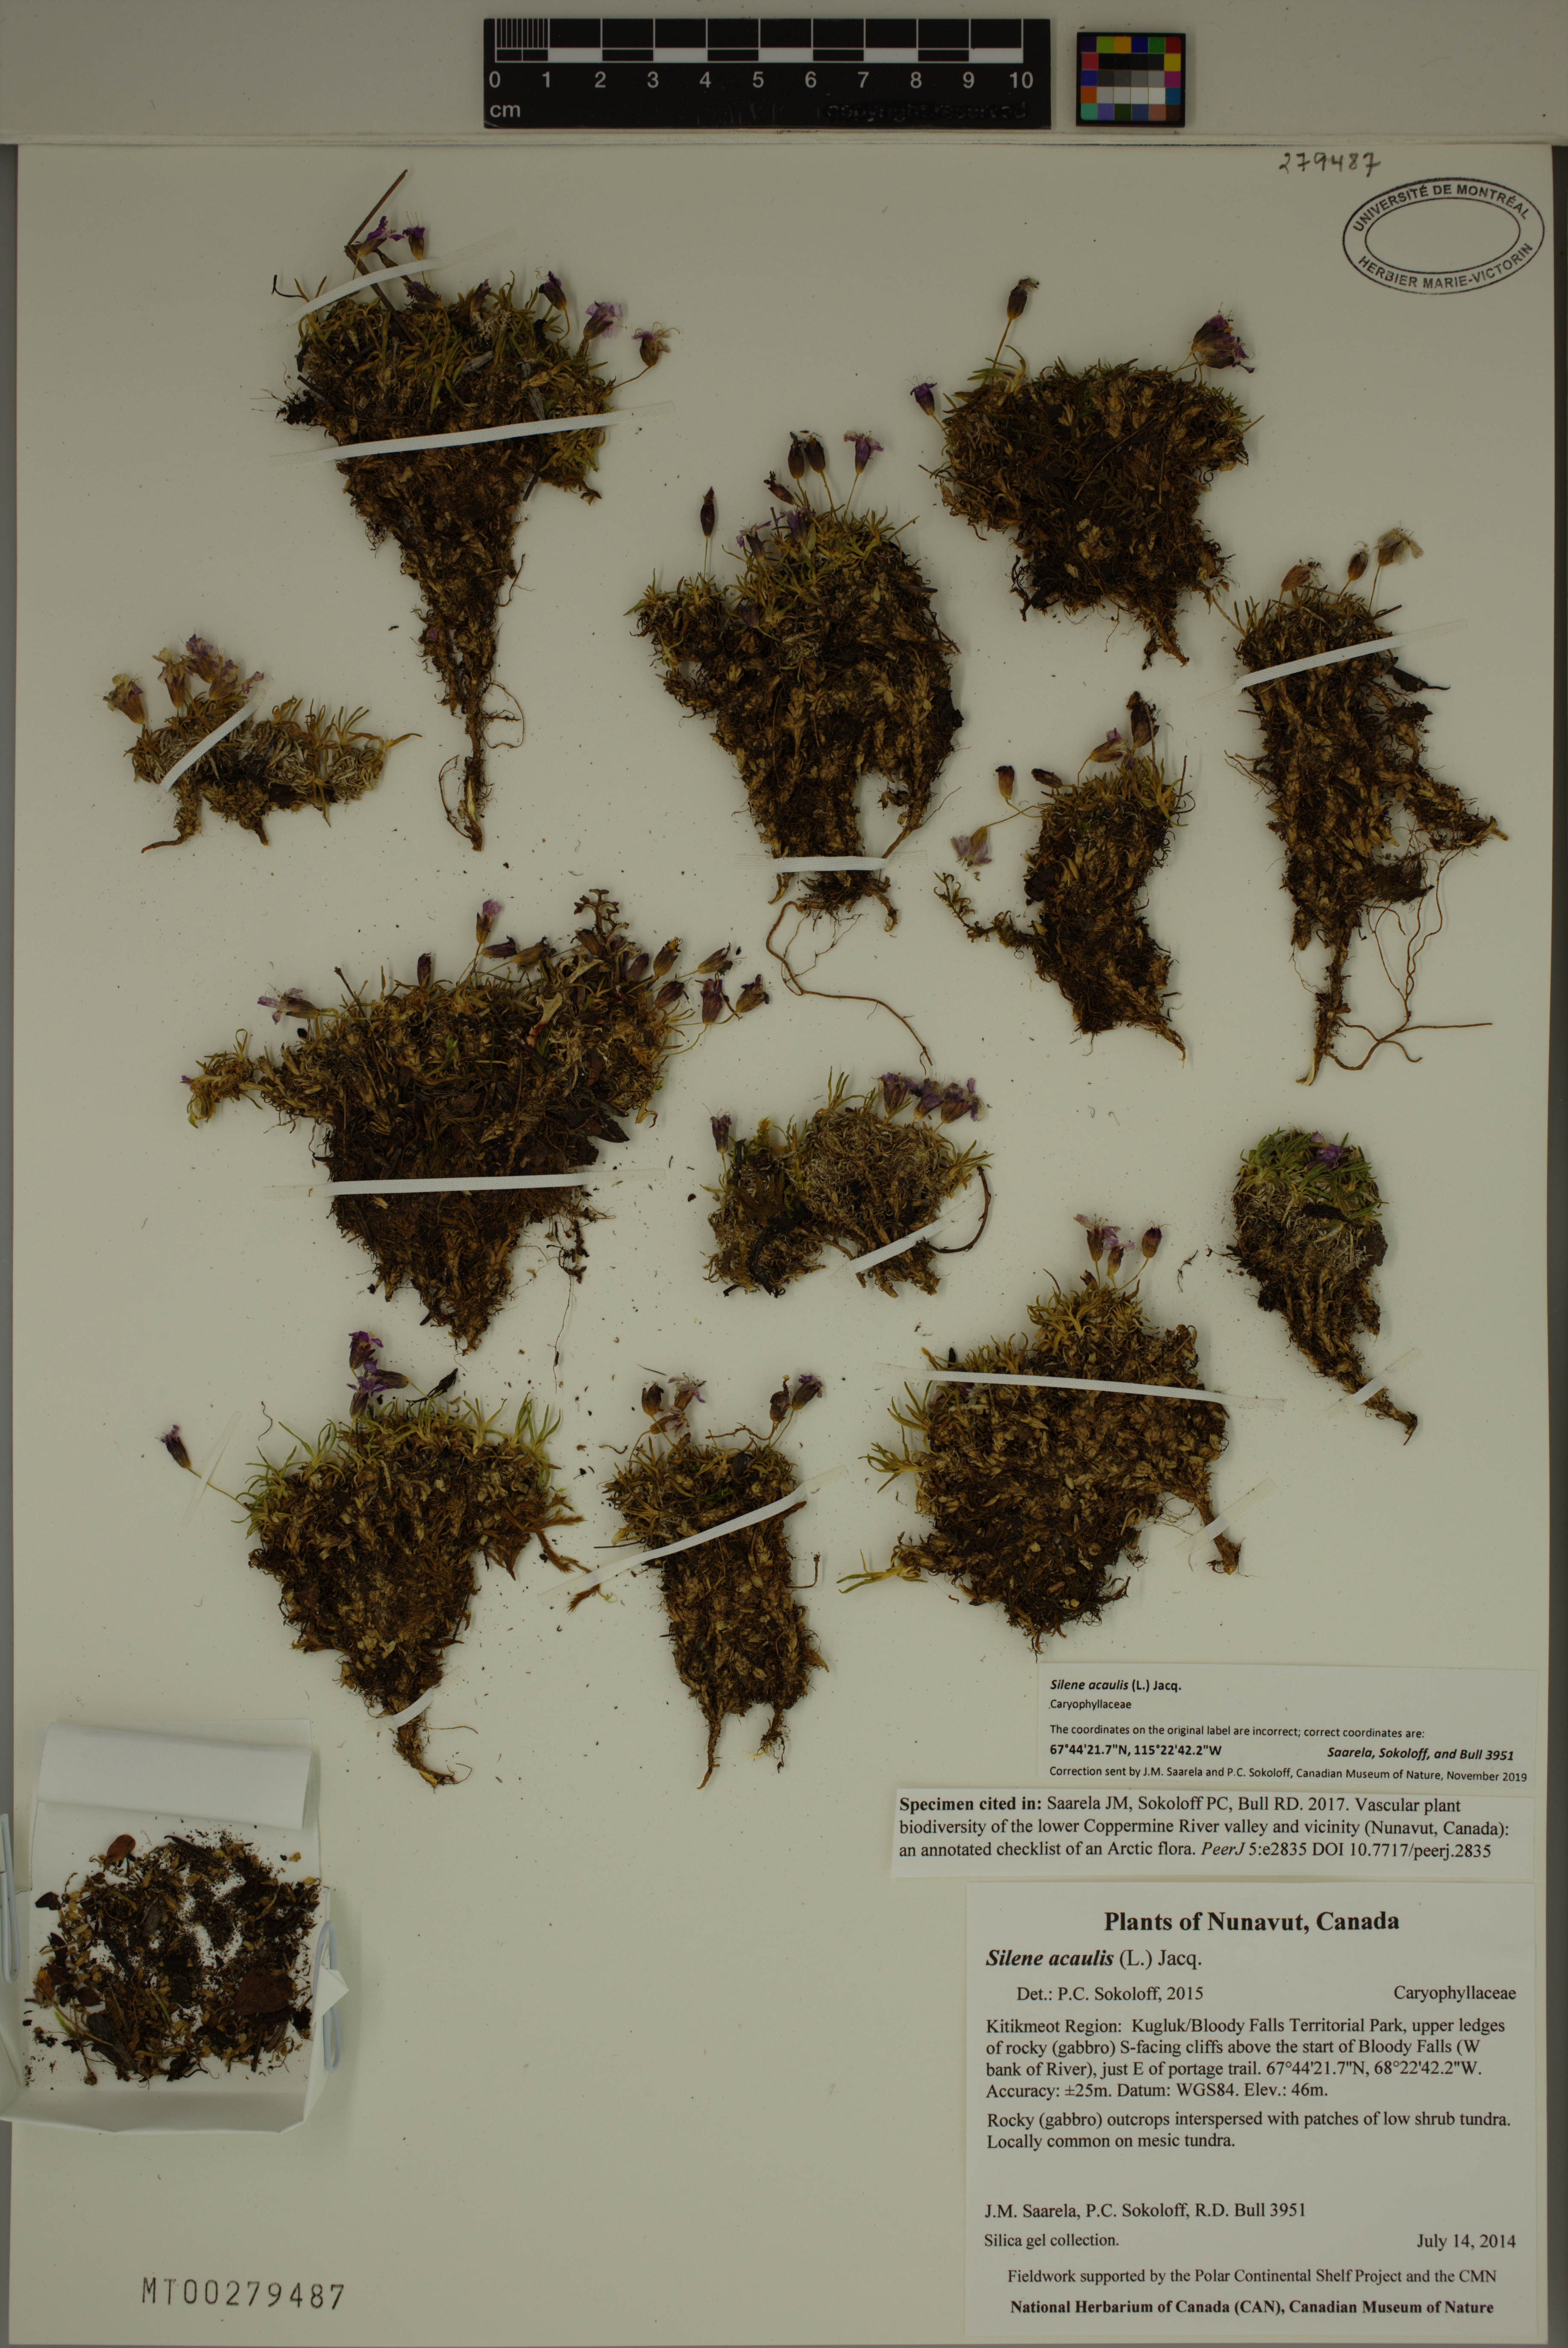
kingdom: Plantae
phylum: Tracheophyta
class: Magnoliopsida
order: Caryophyllales
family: Caryophyllaceae
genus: Silene
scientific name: Silene acaulis
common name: Moss campion
